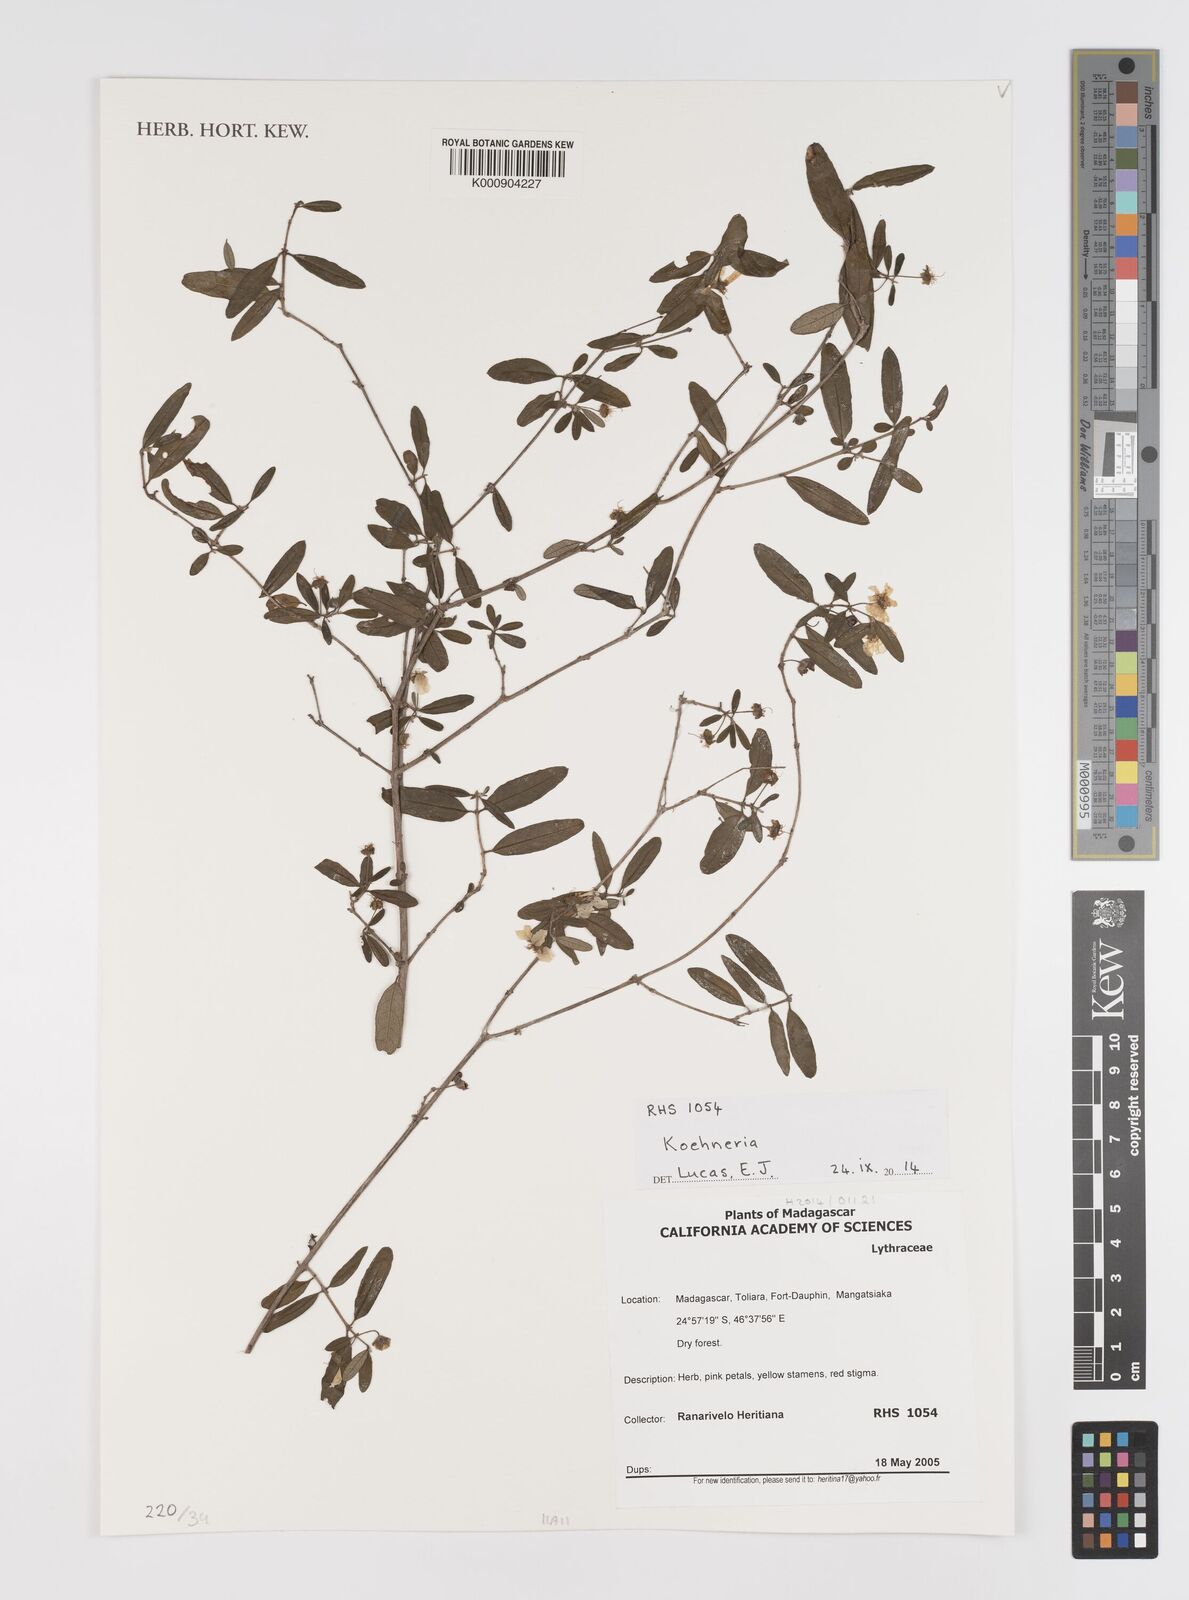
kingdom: Plantae
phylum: Tracheophyta
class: Magnoliopsida
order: Myrtales
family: Lythraceae
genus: Koehneria
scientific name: Koehneria
